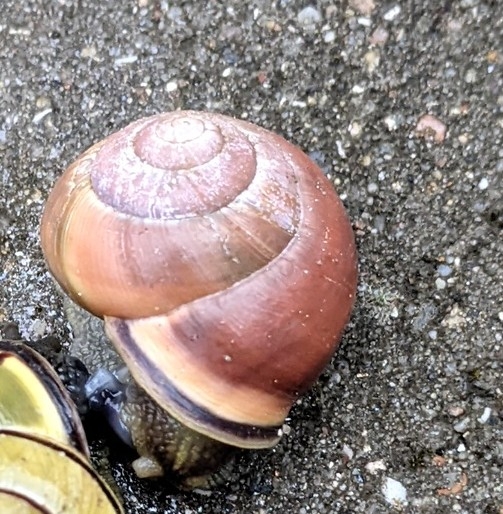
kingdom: Animalia
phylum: Mollusca
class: Gastropoda
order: Stylommatophora
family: Helicidae
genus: Cepaea
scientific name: Cepaea nemoralis
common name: Lundsnegl
